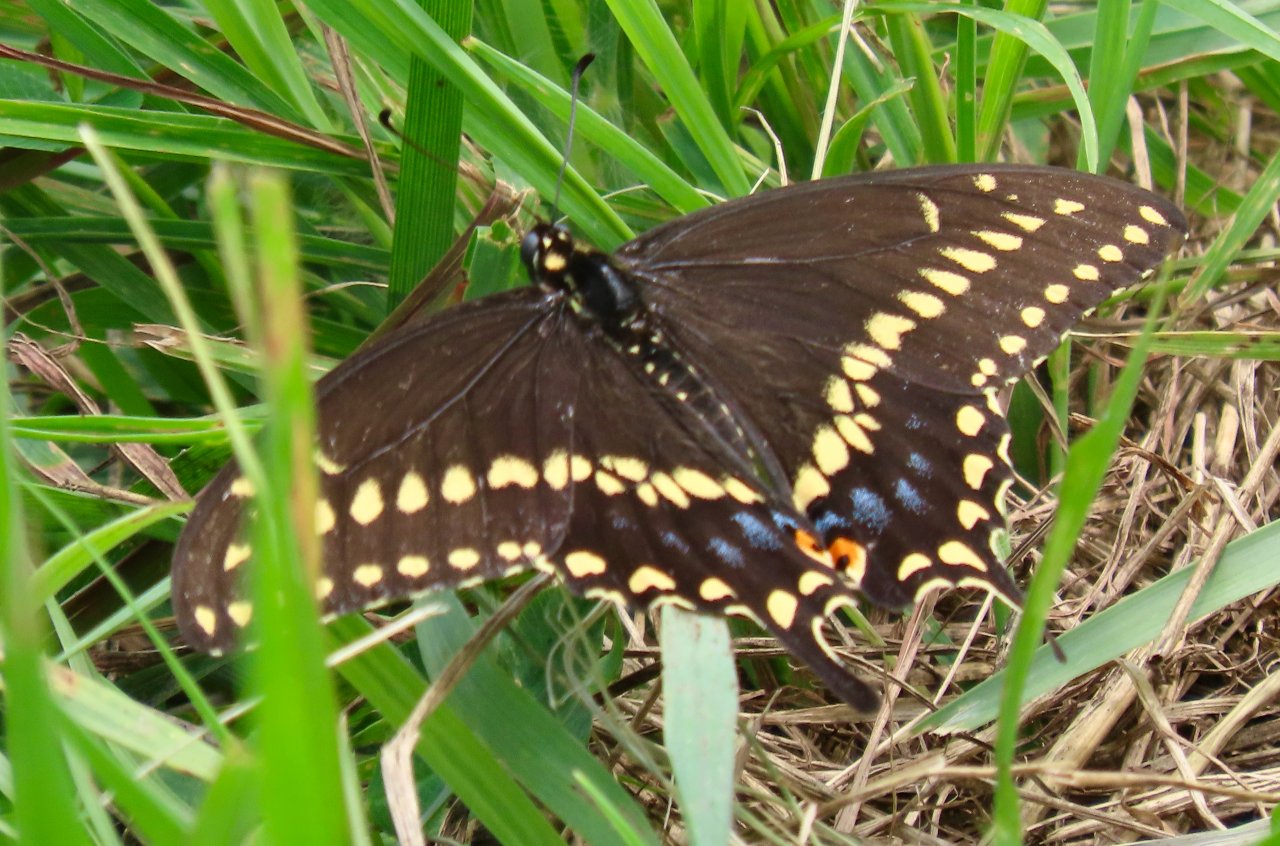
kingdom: Animalia
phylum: Arthropoda
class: Insecta
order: Lepidoptera
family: Papilionidae
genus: Papilio
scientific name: Papilio polyxenes
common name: Black Swallowtail
